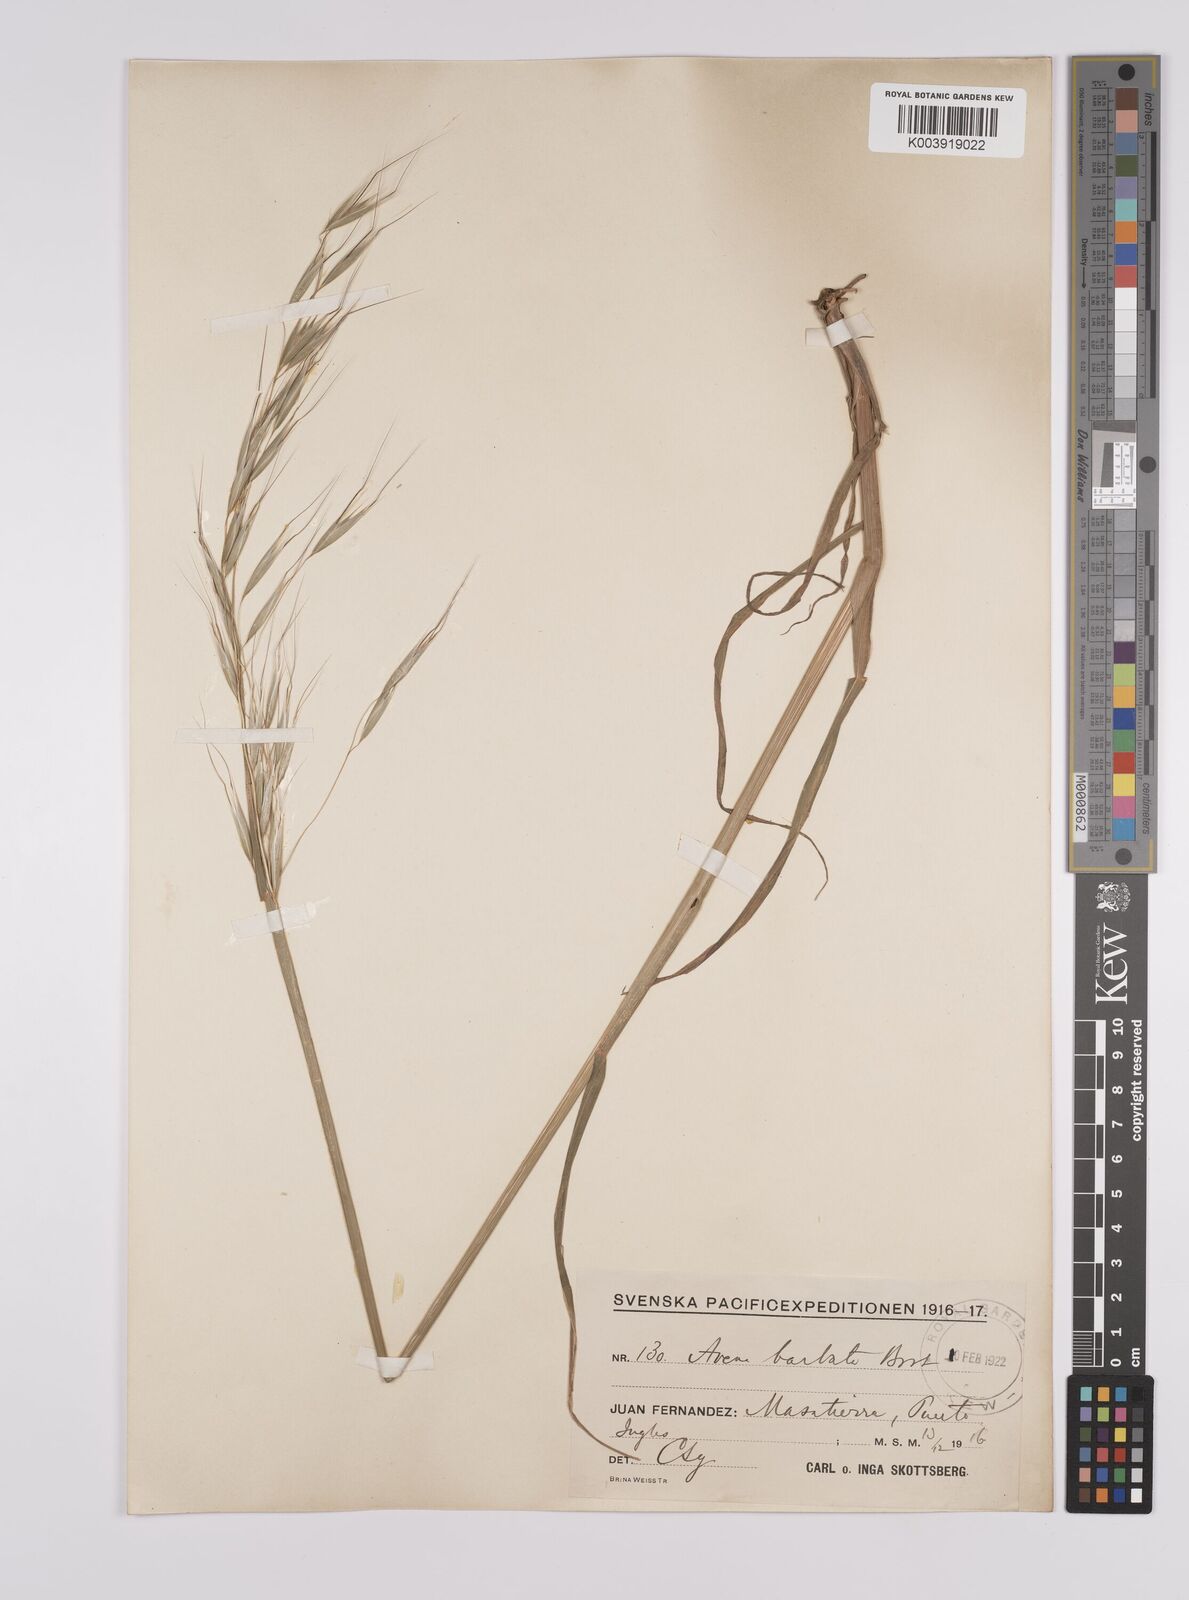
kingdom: Plantae
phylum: Tracheophyta
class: Liliopsida
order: Poales
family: Poaceae
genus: Avena
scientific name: Avena barbata
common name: Slender oat
